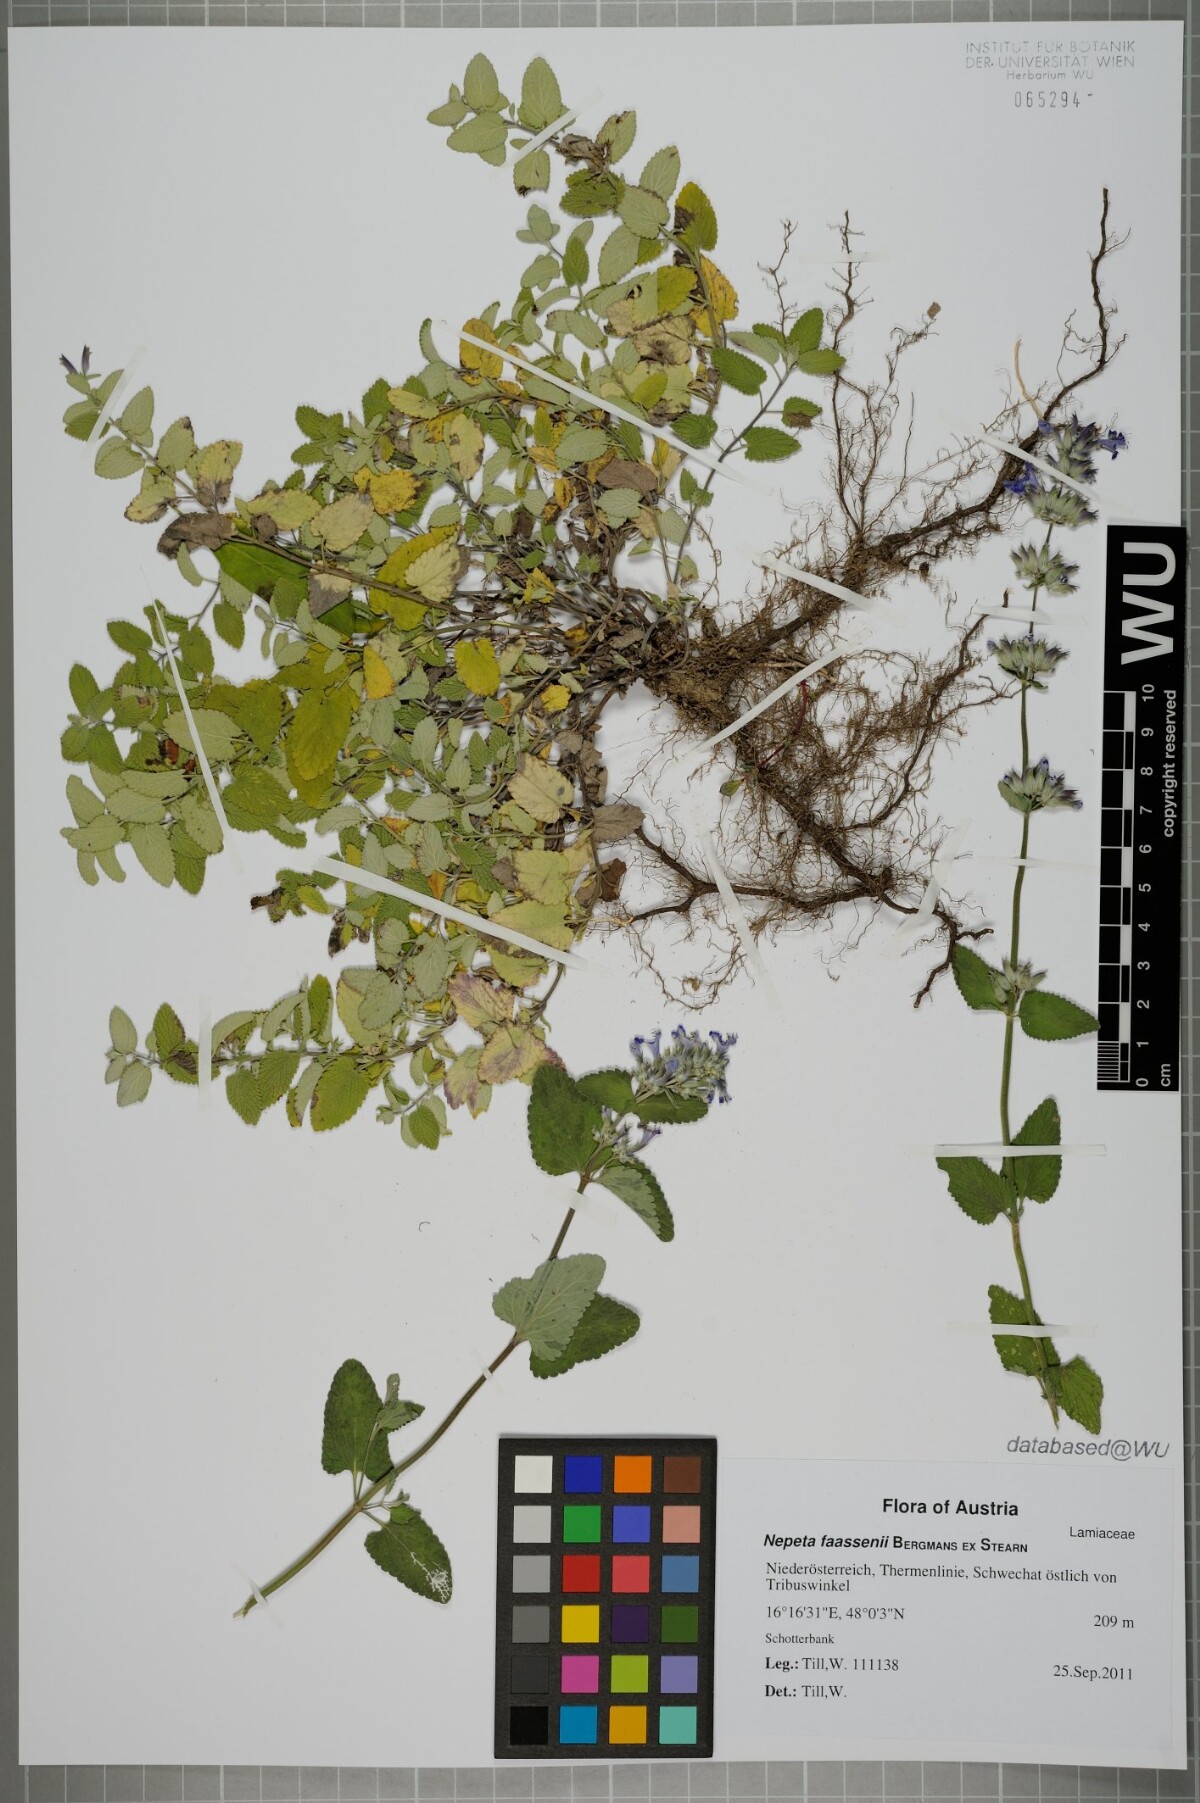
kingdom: Plantae
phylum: Tracheophyta
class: Magnoliopsida
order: Lamiales
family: Lamiaceae
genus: Nepeta
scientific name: Nepeta faassenii
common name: Catmint
